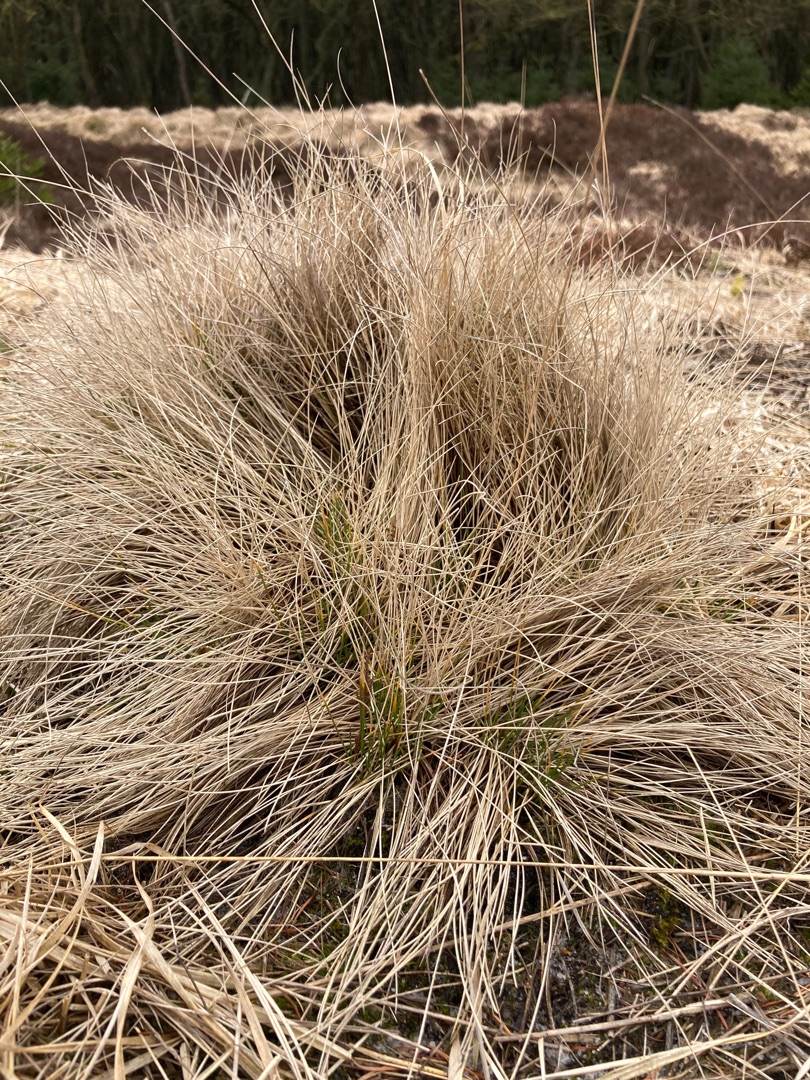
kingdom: Plantae
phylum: Tracheophyta
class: Liliopsida
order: Poales
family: Poaceae
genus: Nardus
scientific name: Nardus stricta
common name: Katteskæg
